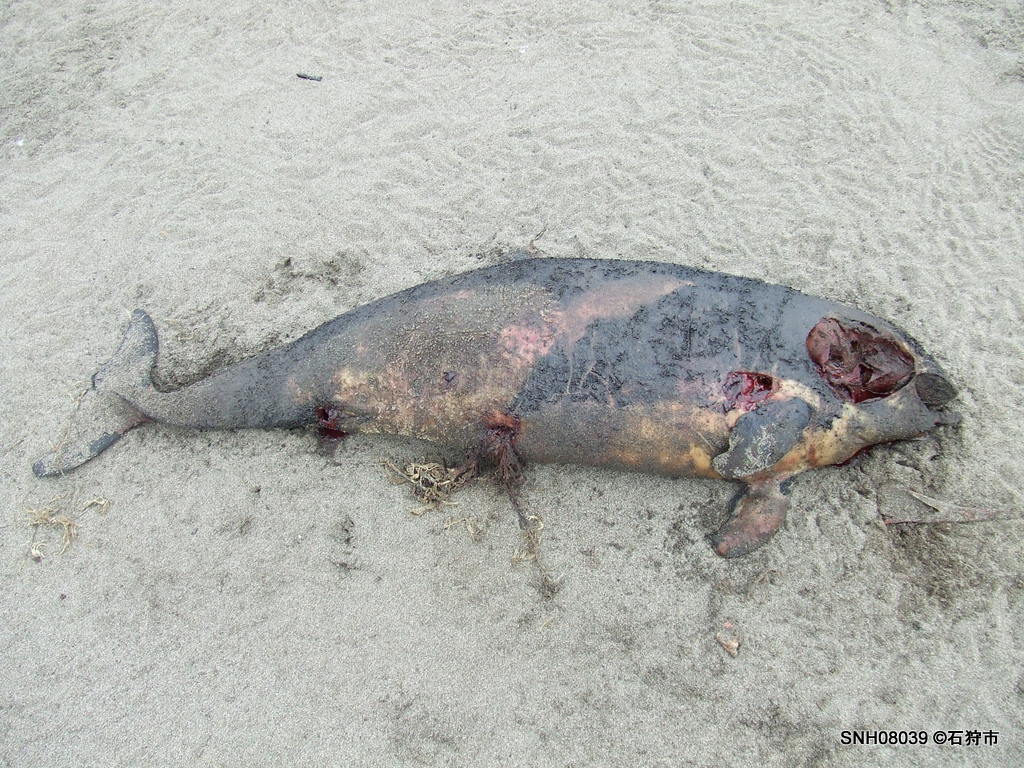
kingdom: Animalia
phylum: Chordata
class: Mammalia
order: Cetacea
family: Phocoenidae
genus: Phocoenoides
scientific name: Phocoenoides dalli
